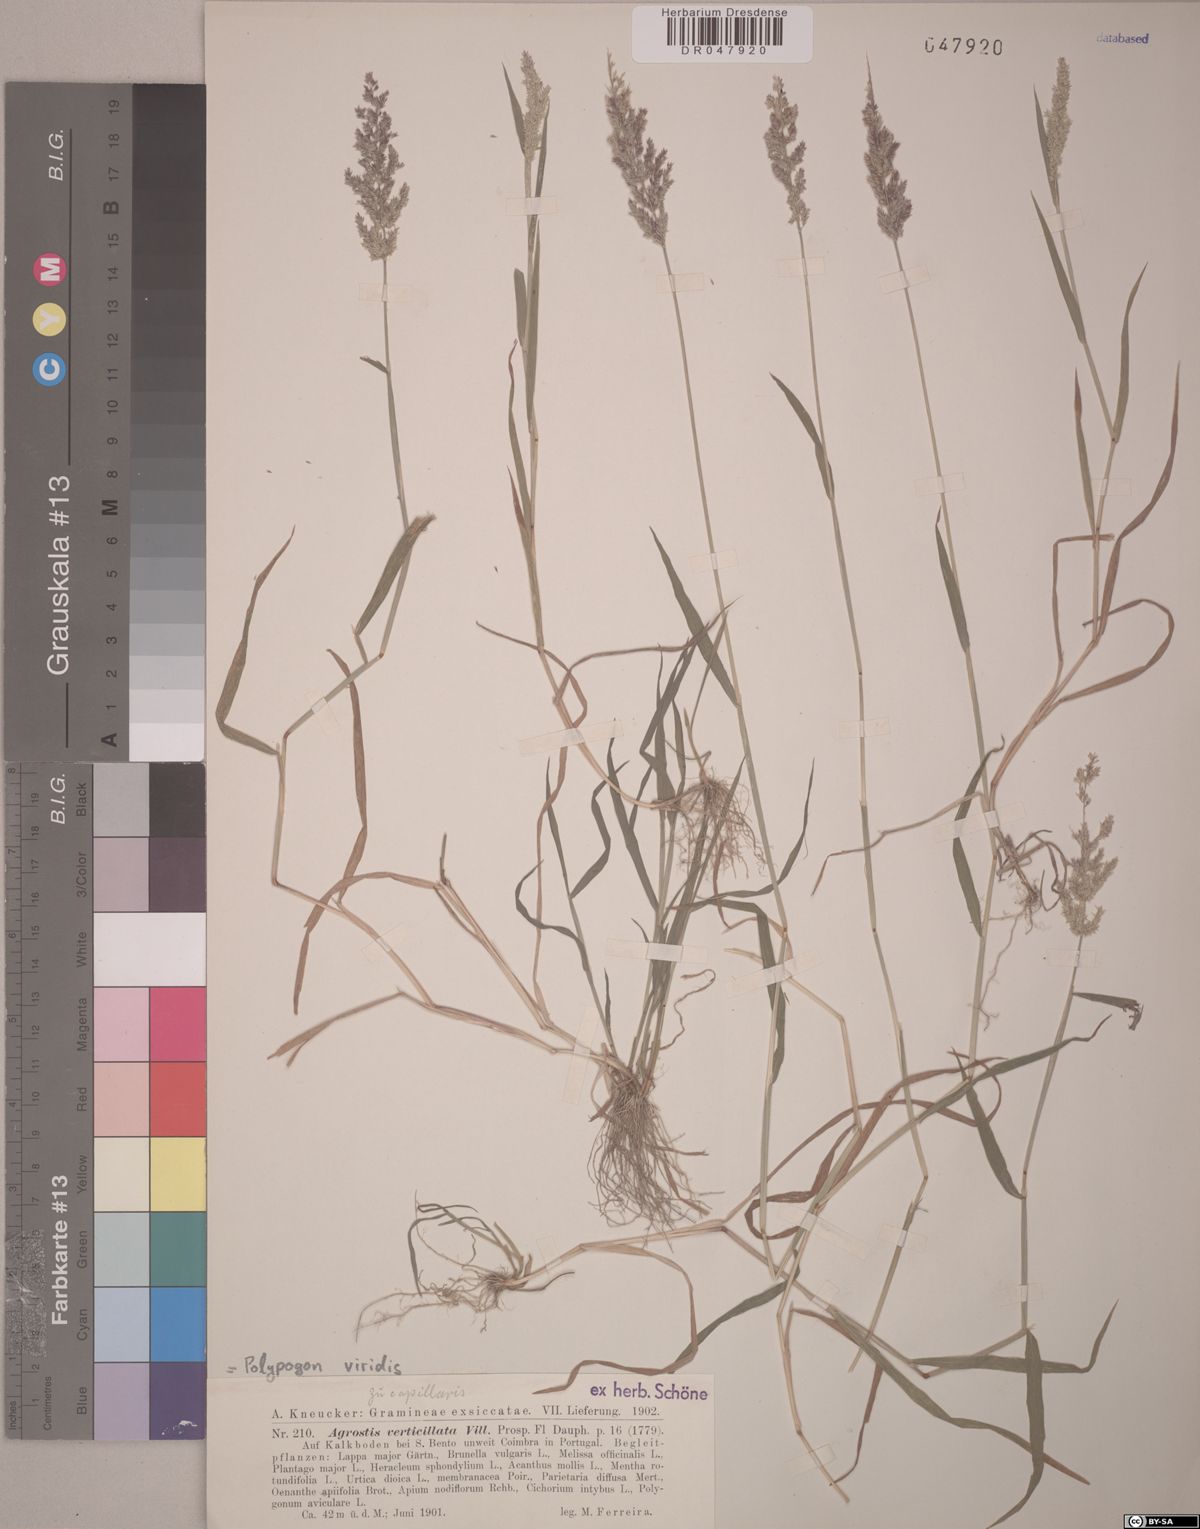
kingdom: Plantae
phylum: Tracheophyta
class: Liliopsida
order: Poales
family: Poaceae
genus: Polypogon
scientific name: Polypogon viridis
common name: Water bent
